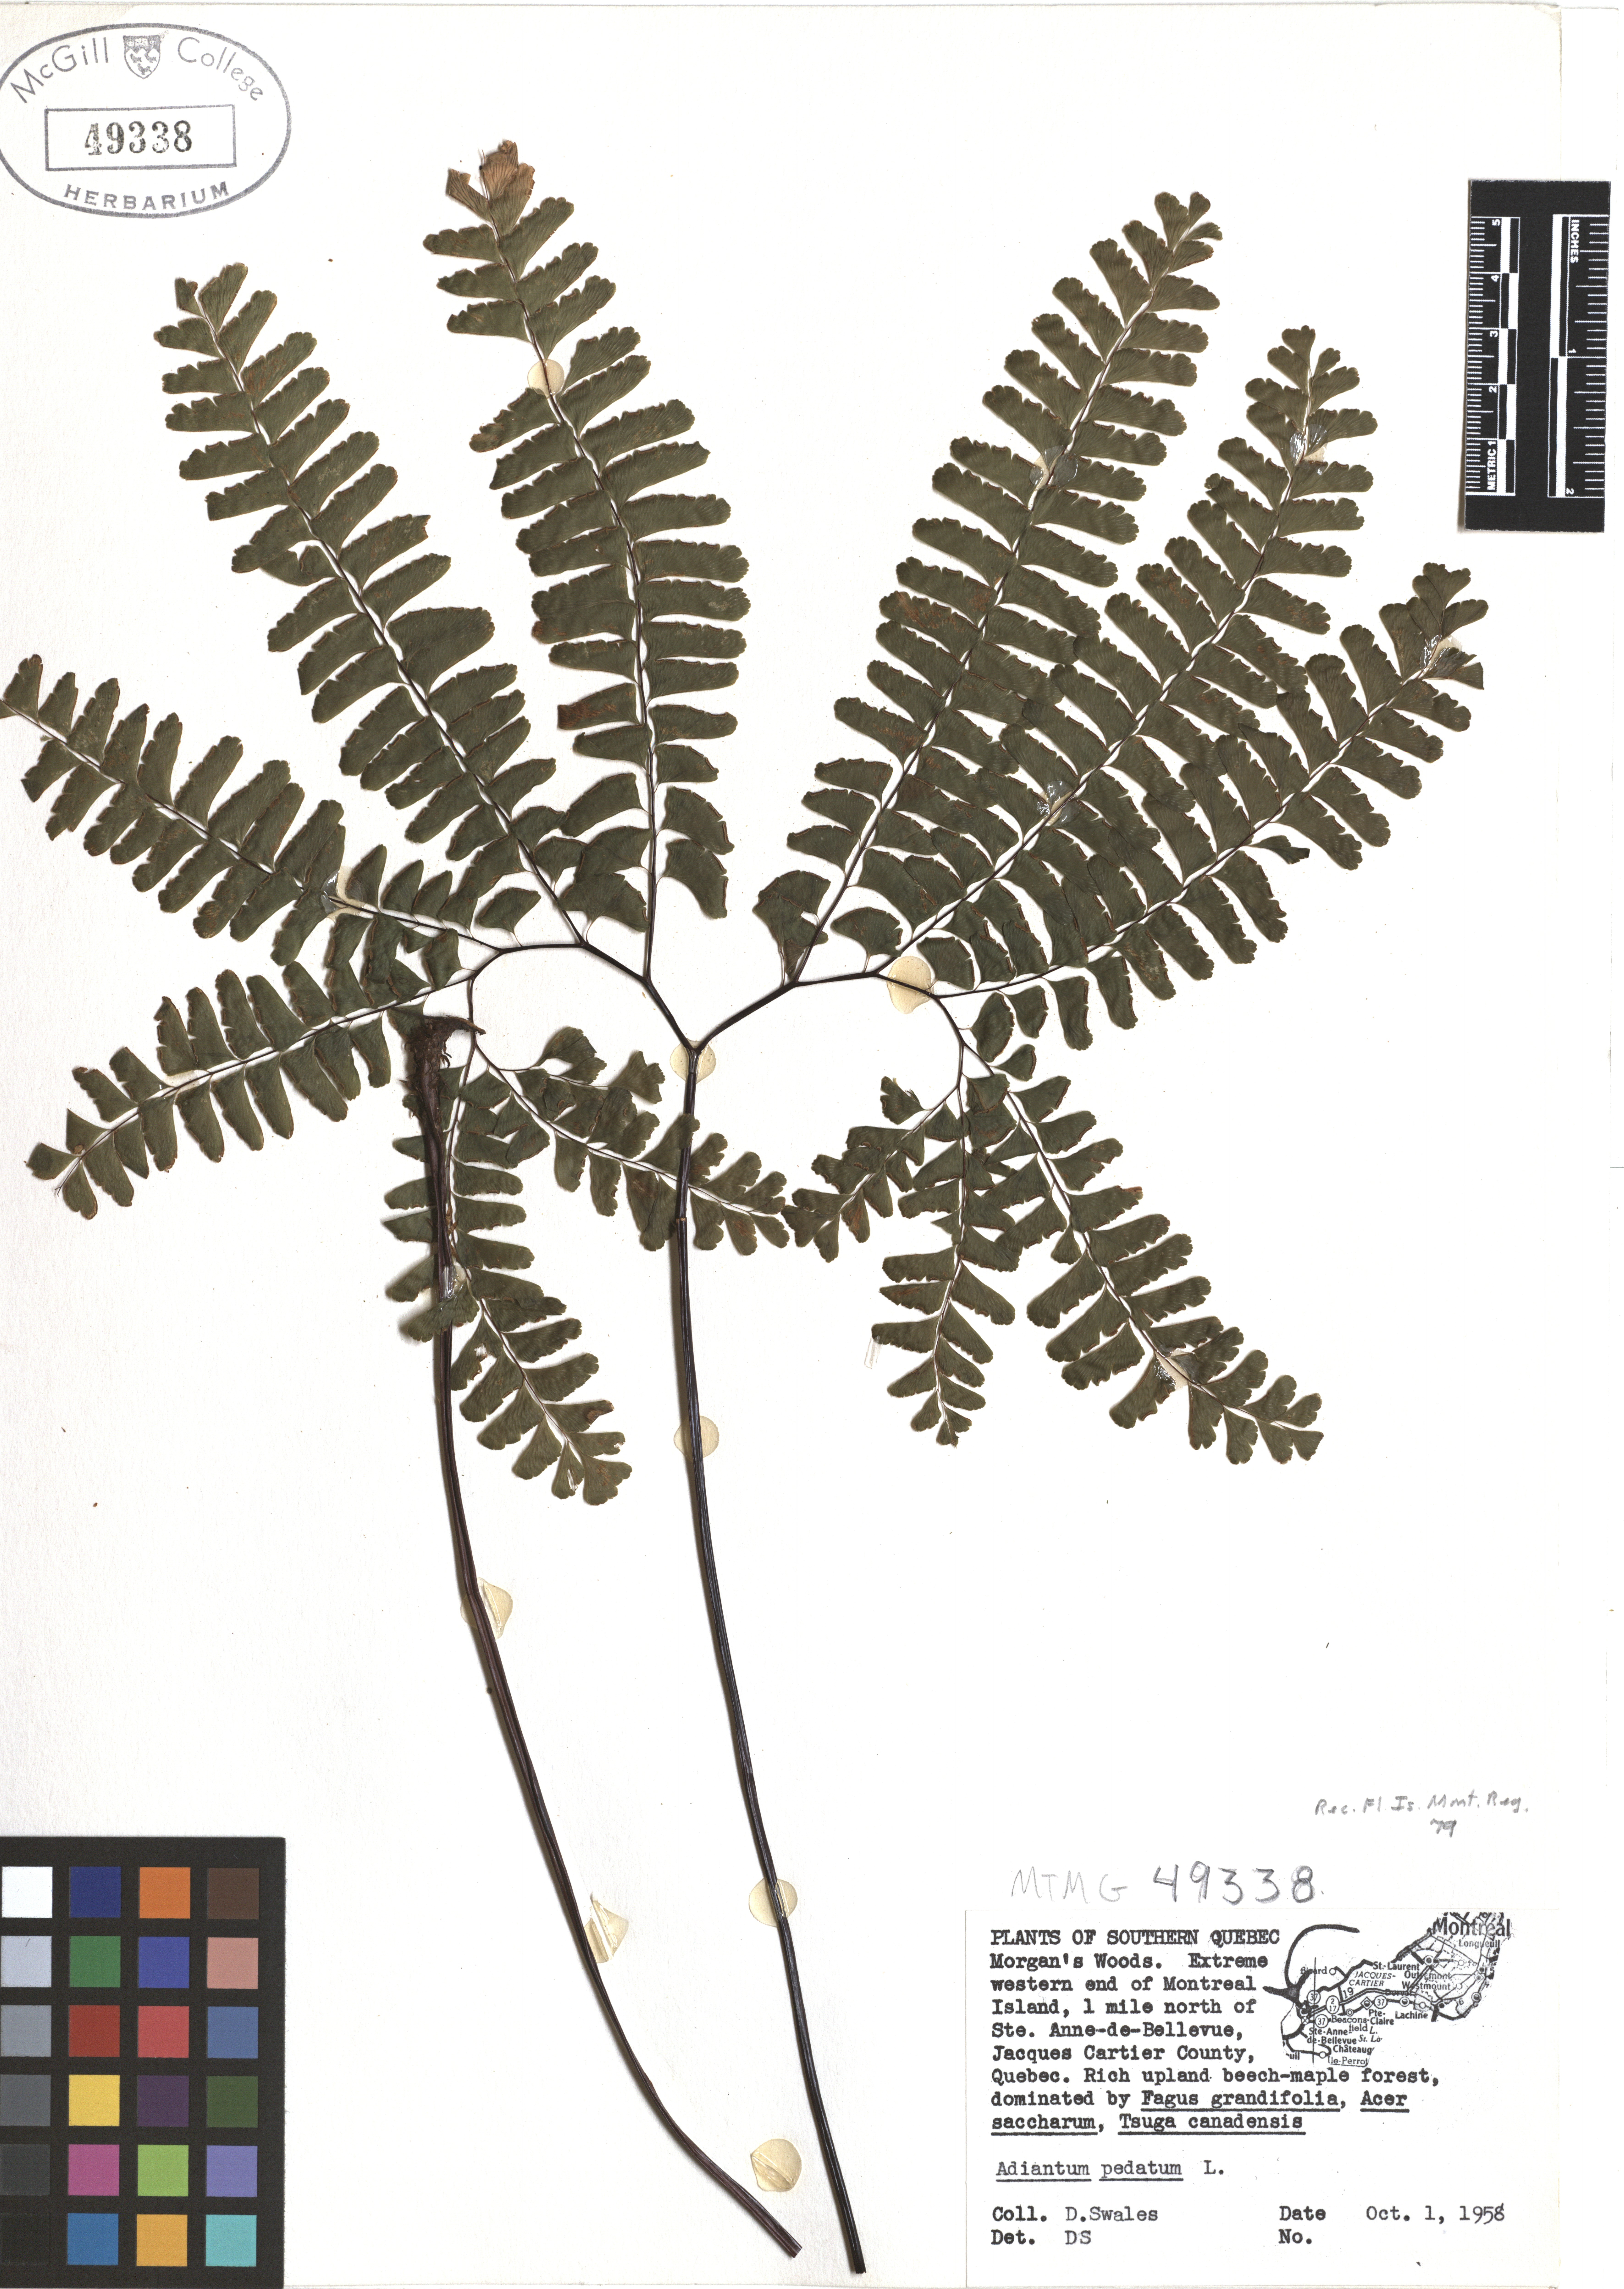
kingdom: Plantae
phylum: Tracheophyta
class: Polypodiopsida
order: Polypodiales
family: Pteridaceae
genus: Adiantum
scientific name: Adiantum pedatum
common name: Five-finger fern
